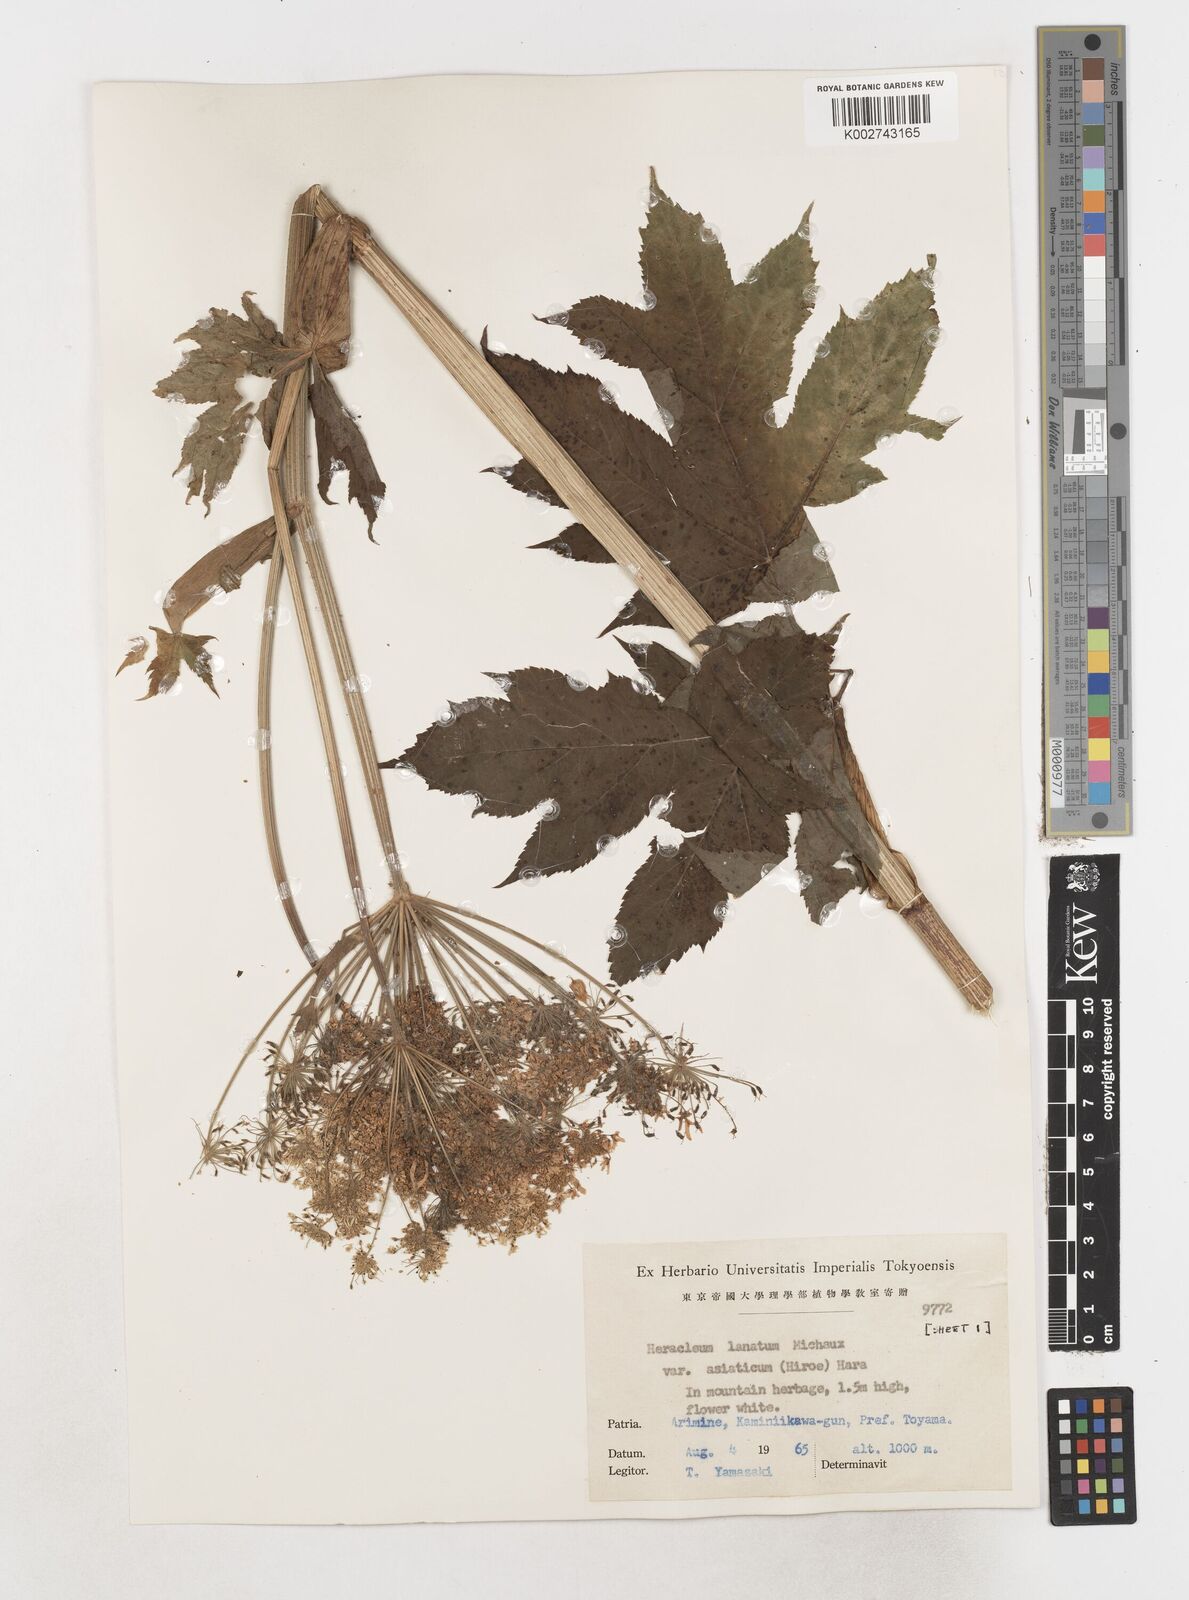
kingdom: Plantae
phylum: Tracheophyta
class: Magnoliopsida
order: Apiales
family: Apiaceae
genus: Heracleum
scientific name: Heracleum
